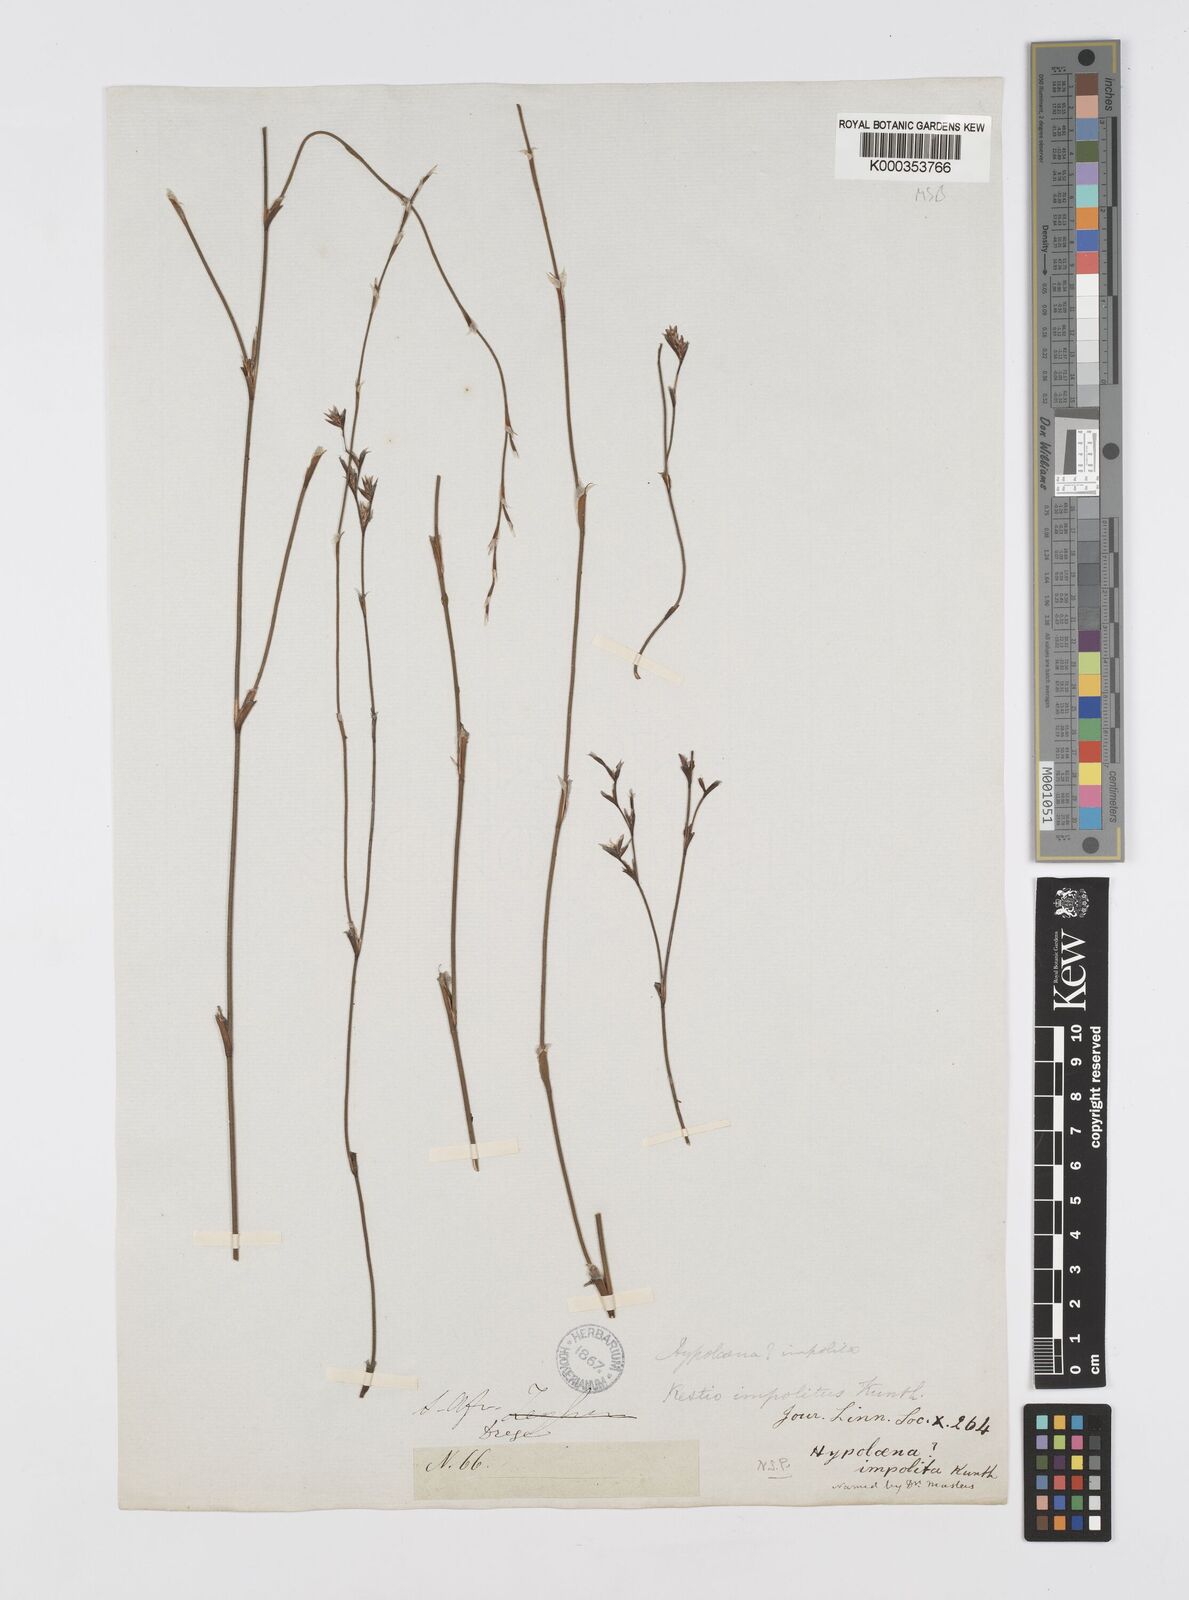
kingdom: Plantae
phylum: Tracheophyta
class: Liliopsida
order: Poales
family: Restionaceae
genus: Restio
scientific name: Restio impolitus
